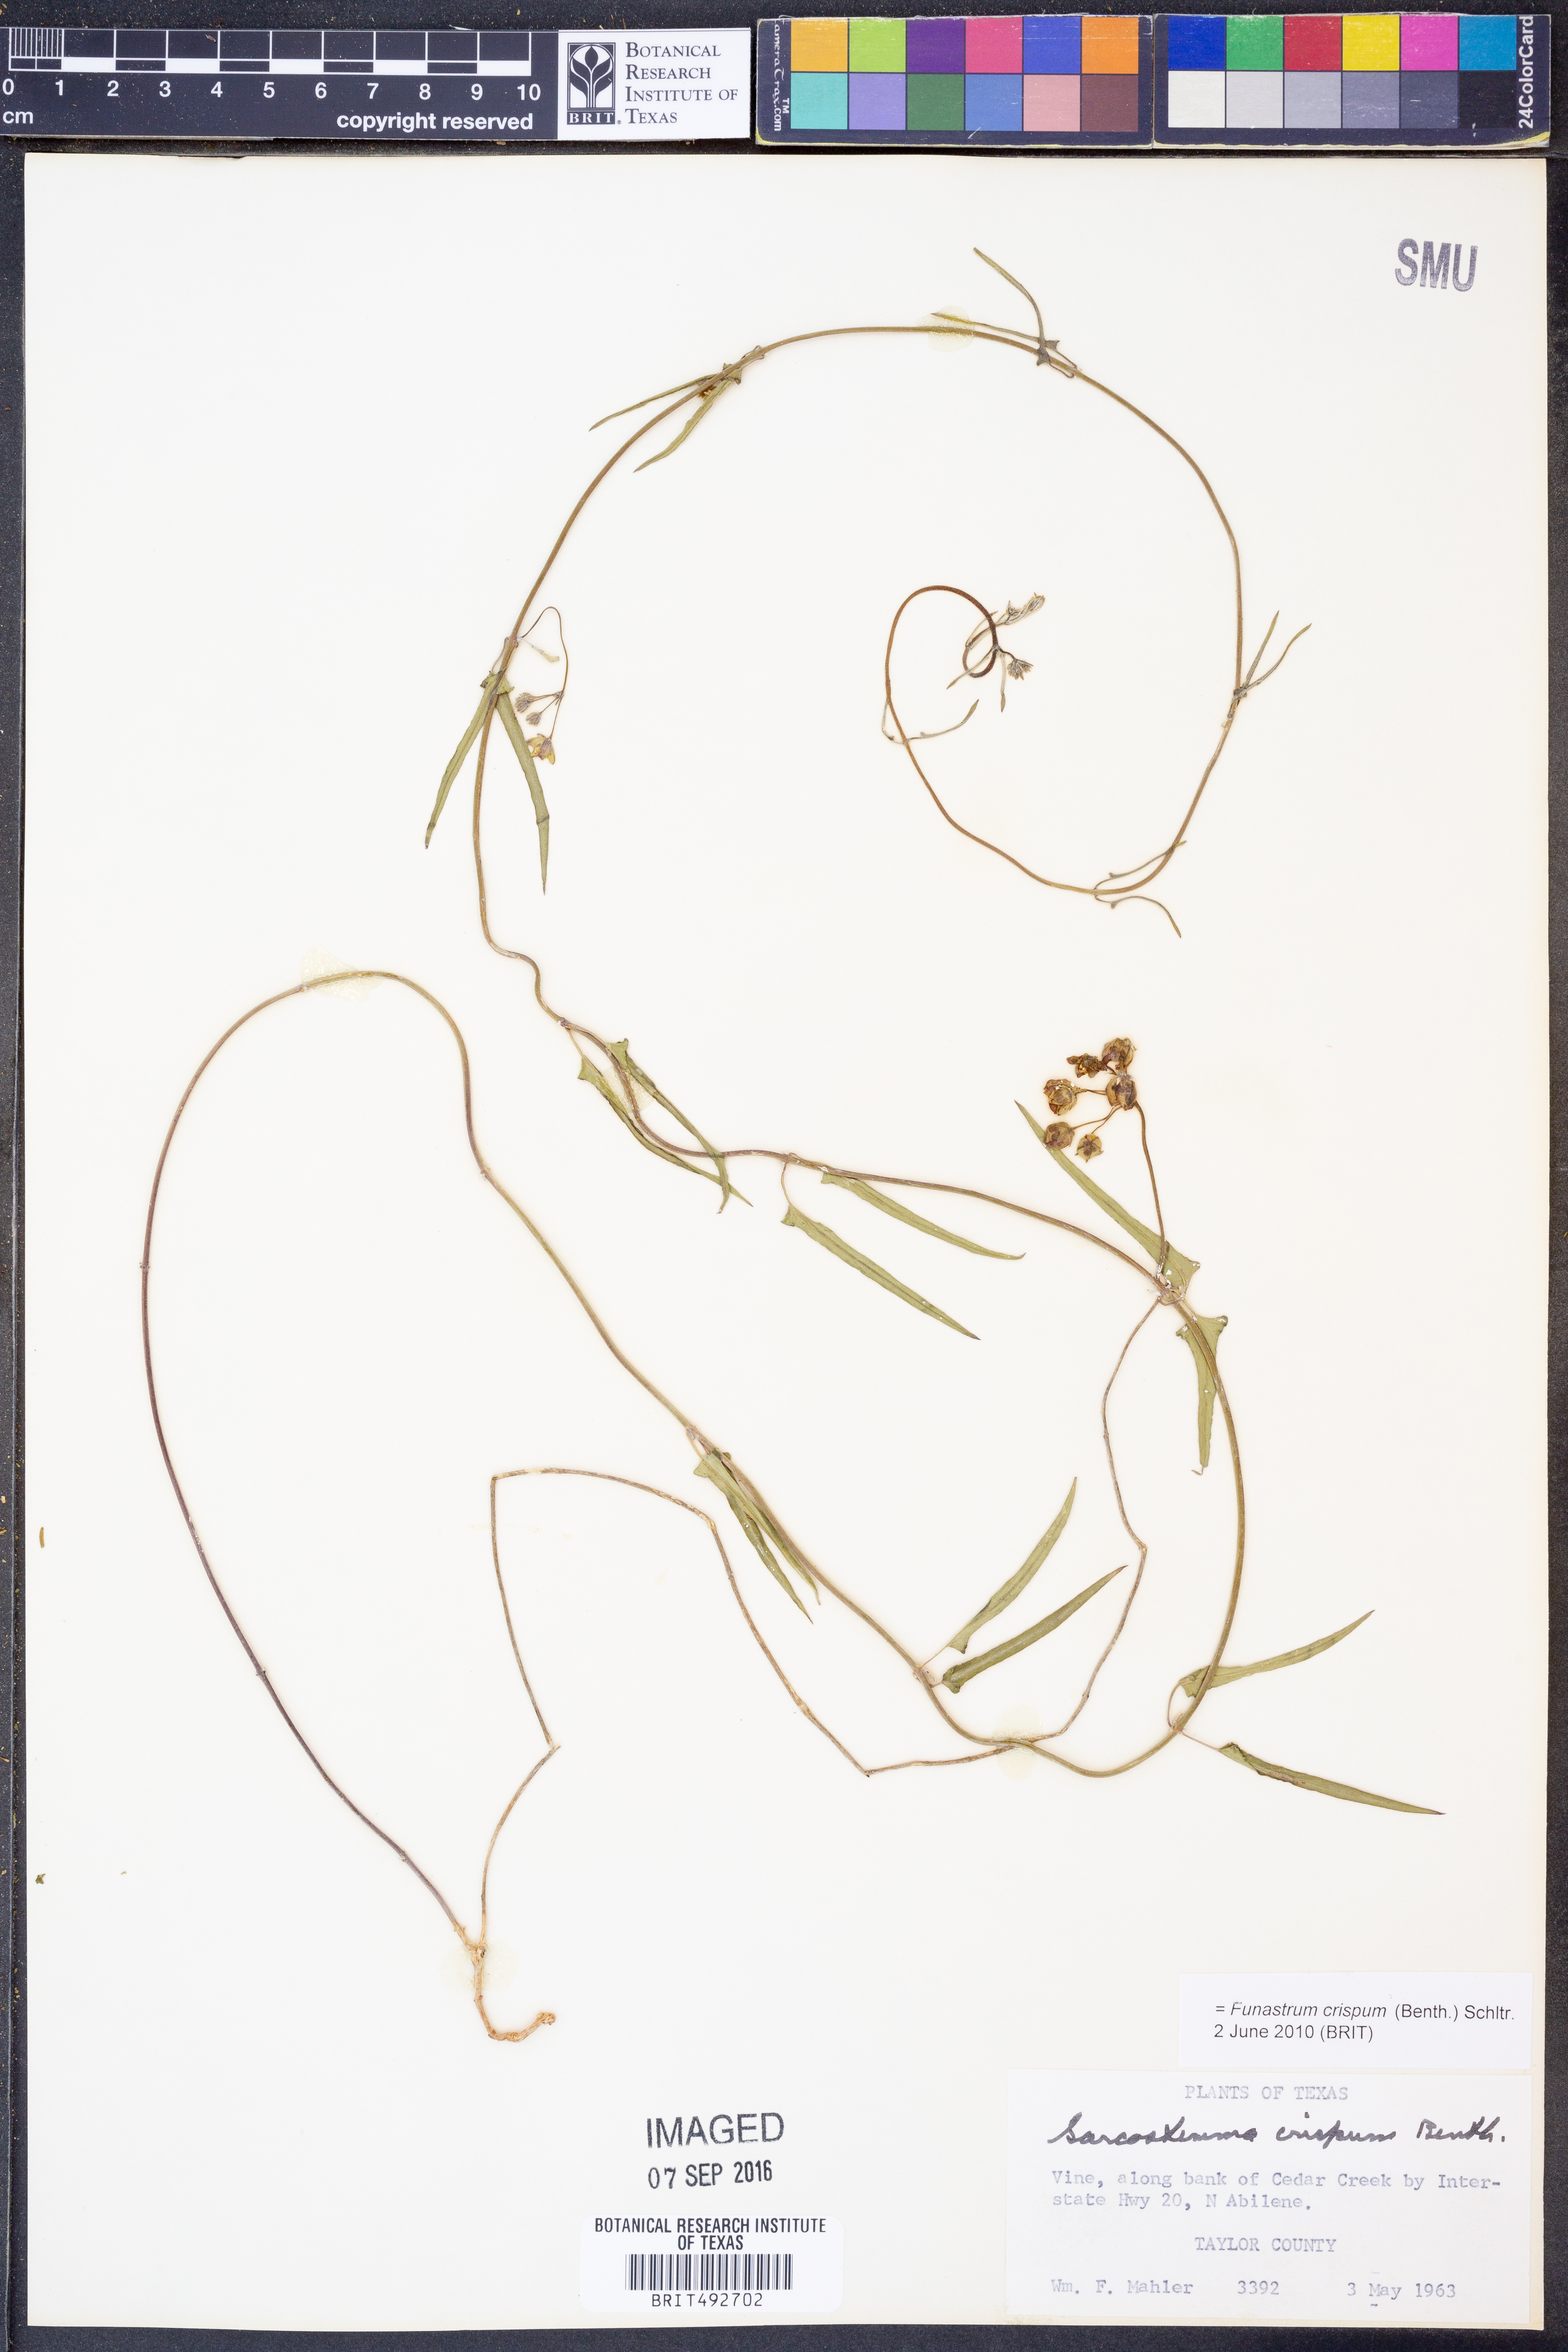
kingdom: Plantae
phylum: Tracheophyta
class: Magnoliopsida
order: Gentianales
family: Apocynaceae
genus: Funastrum
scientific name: Funastrum crispum
